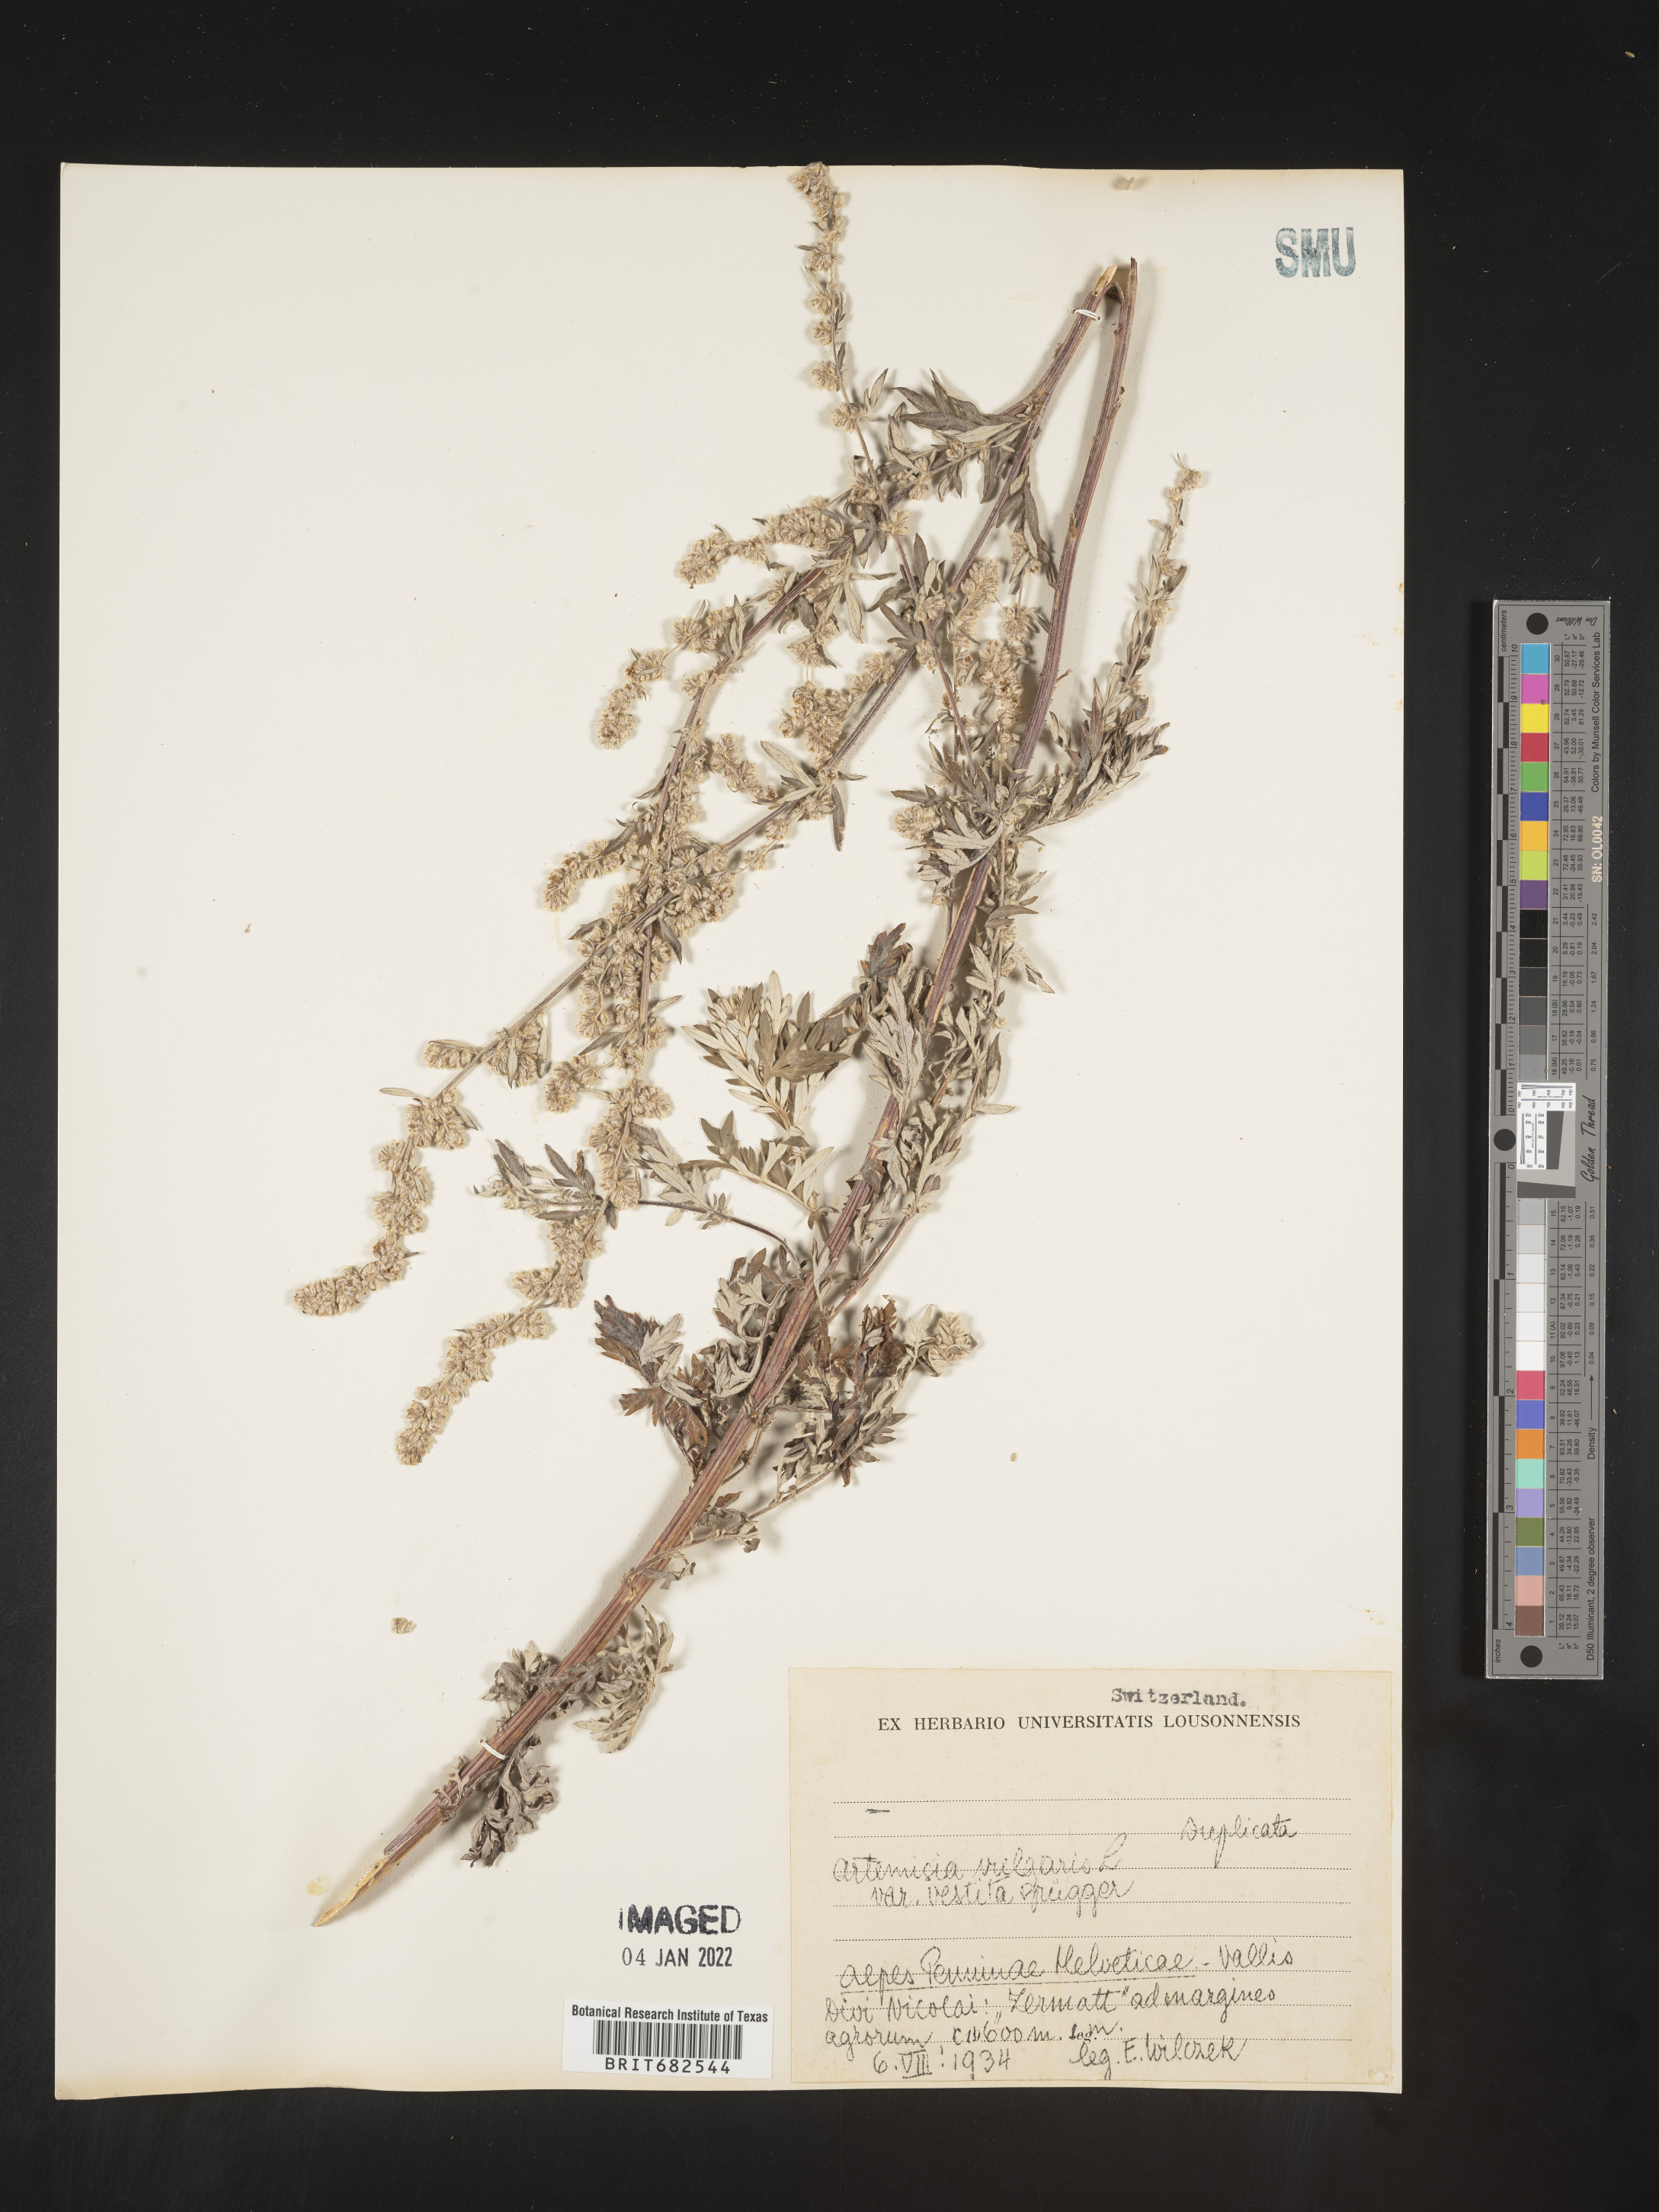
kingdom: Plantae
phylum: Tracheophyta
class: Magnoliopsida
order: Asterales
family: Asteraceae
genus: Artemisia
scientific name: Artemisia
